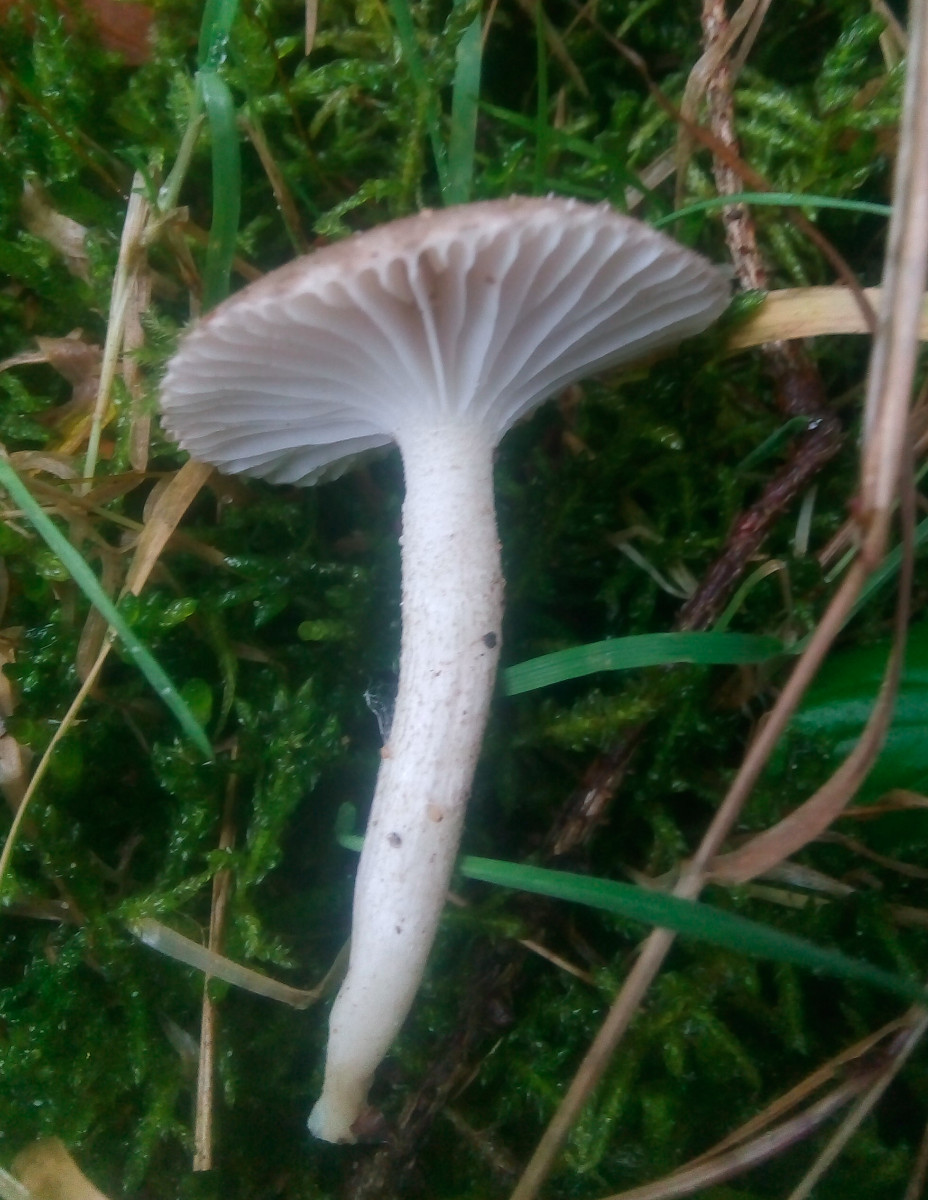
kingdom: Fungi
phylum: Basidiomycota
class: Agaricomycetes
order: Agaricales
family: Hygrophoraceae
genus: Hygrophorus
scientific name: Hygrophorus pustulatus
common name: mørkprikket sneglehat
